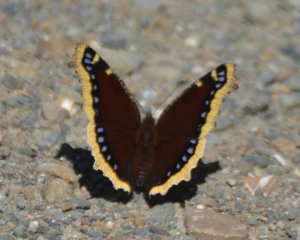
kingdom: Animalia
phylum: Arthropoda
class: Insecta
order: Lepidoptera
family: Nymphalidae
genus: Nymphalis
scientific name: Nymphalis antiopa
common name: Mourning Cloak
